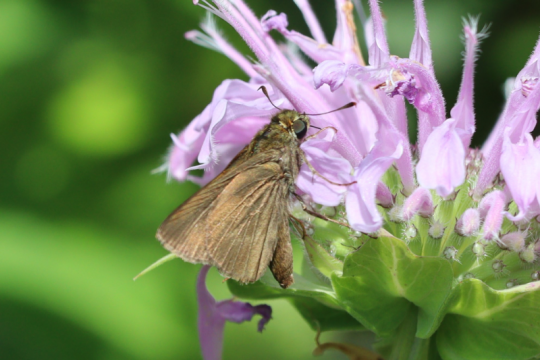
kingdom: Animalia
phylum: Arthropoda
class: Insecta
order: Lepidoptera
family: Hesperiidae
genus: Euphyes
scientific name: Euphyes vestris
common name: Dun Skipper
